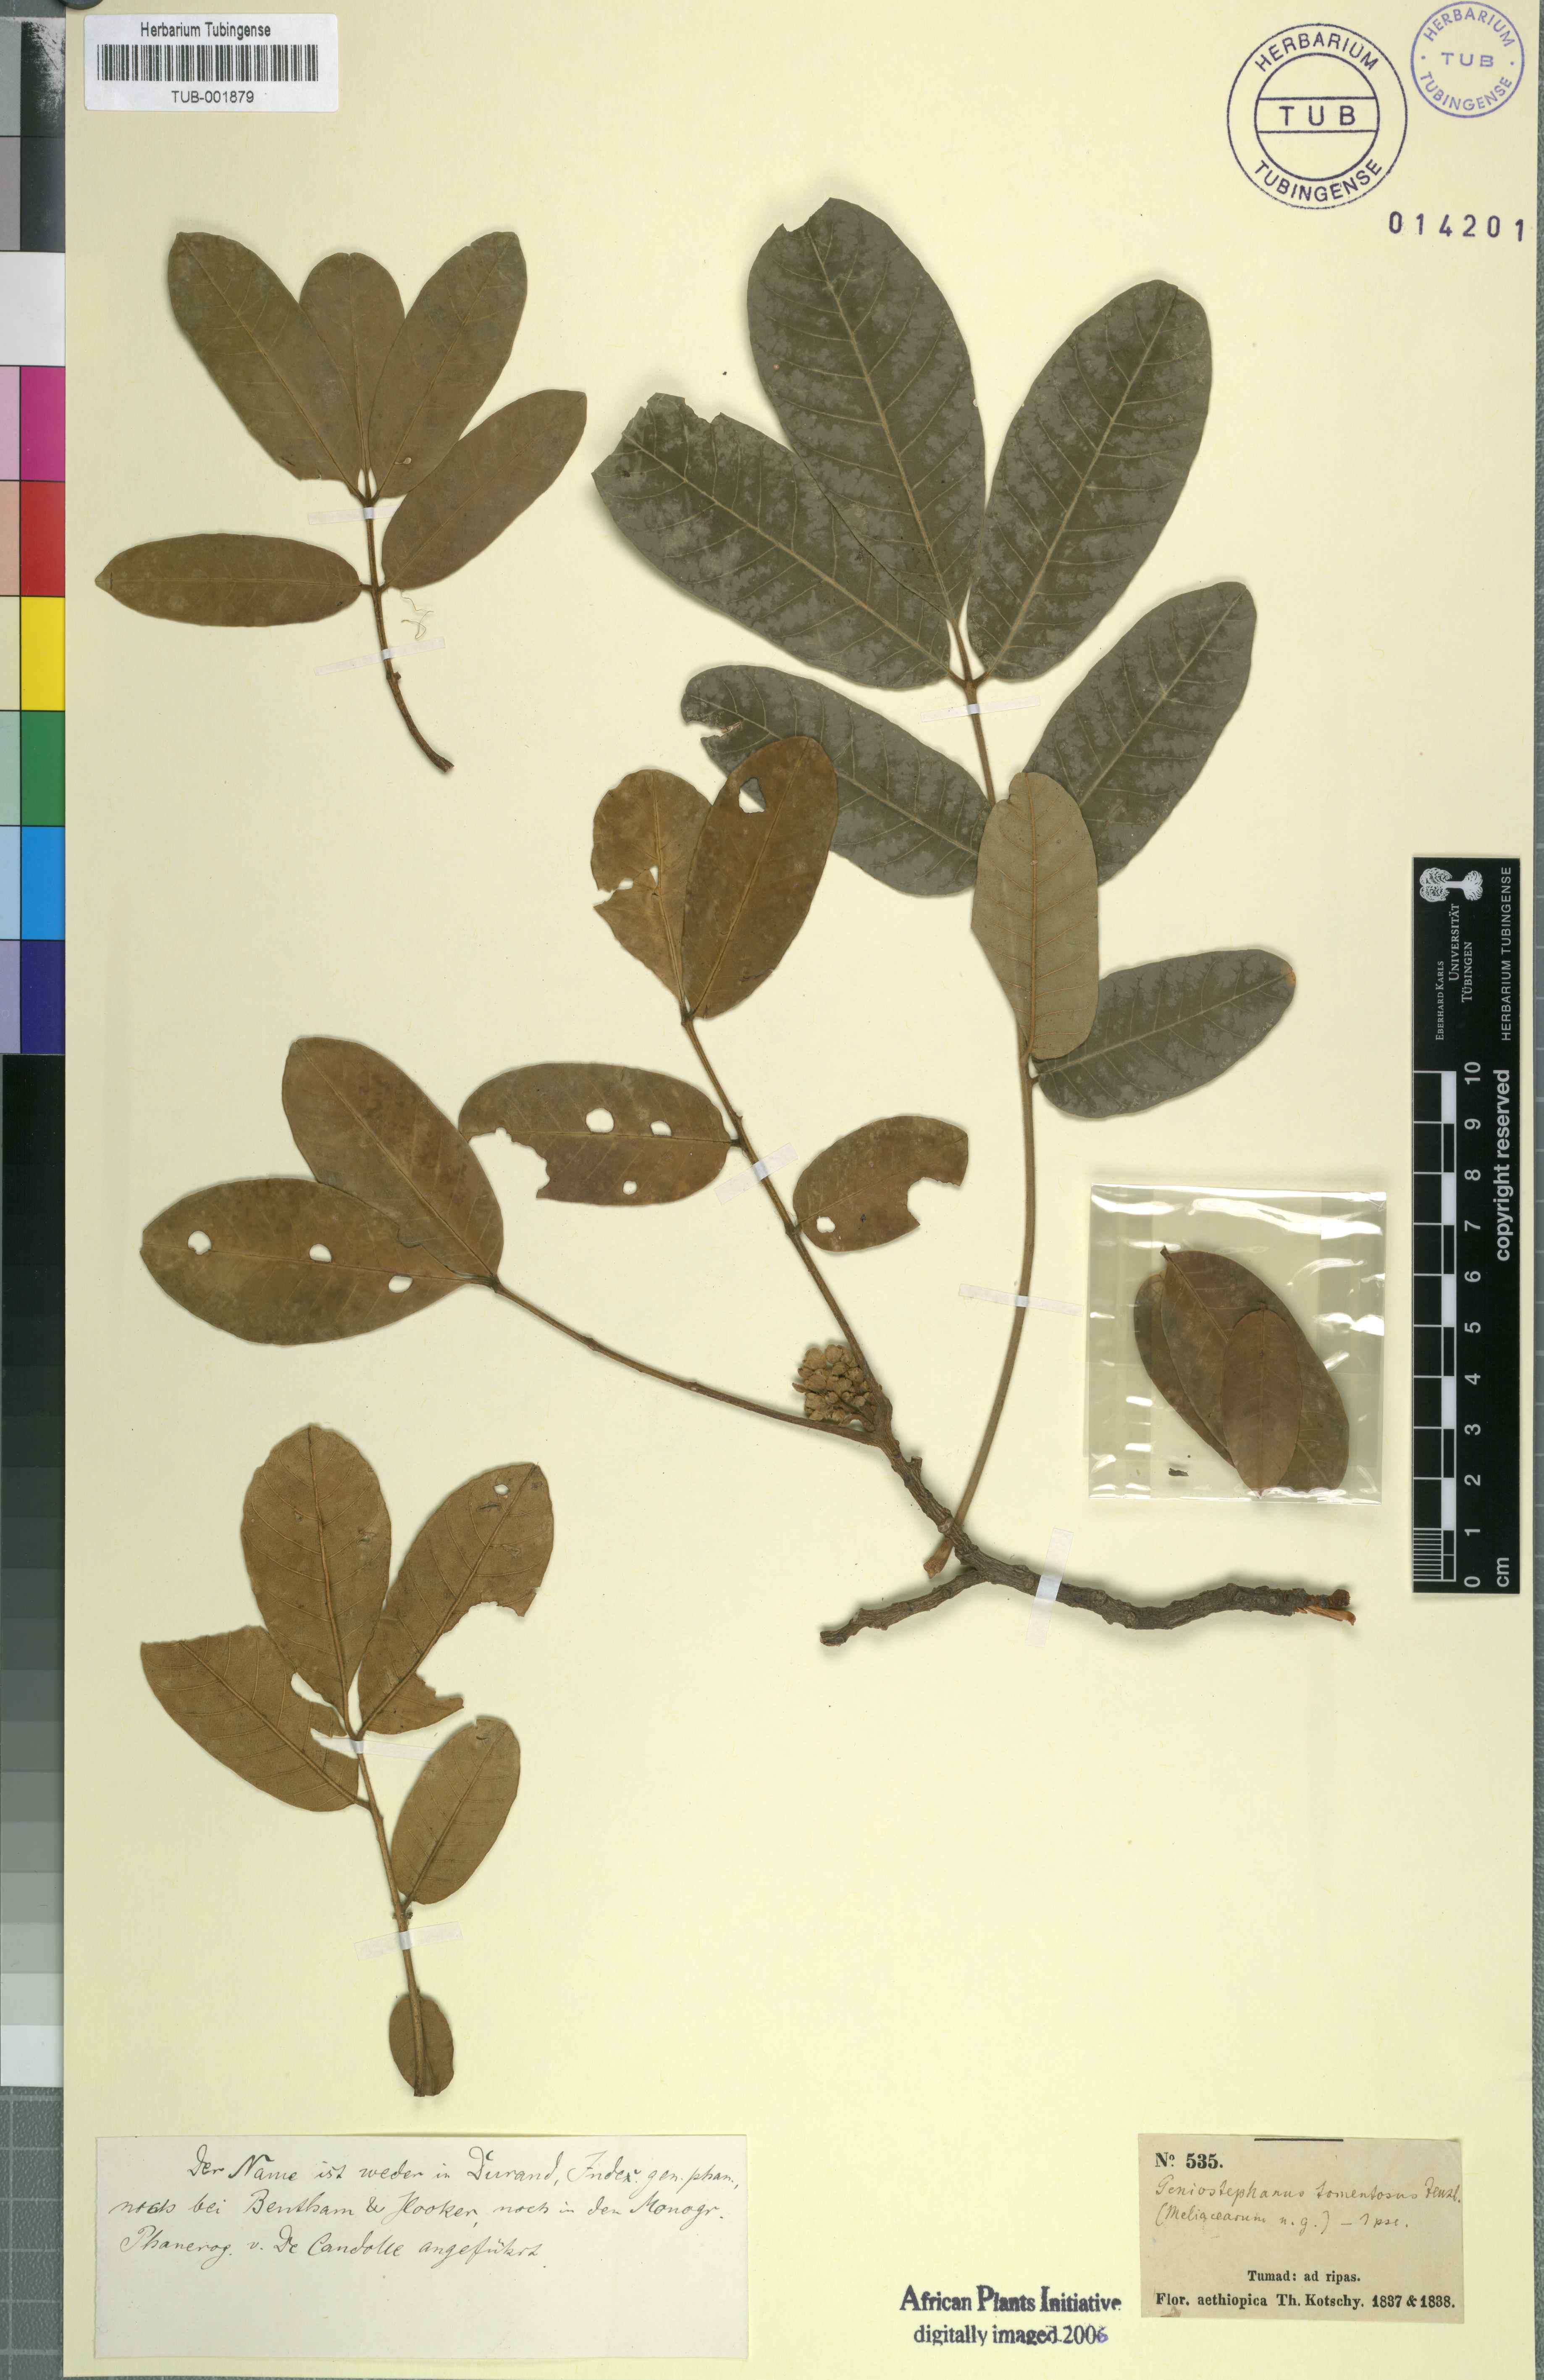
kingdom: Plantae
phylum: Tracheophyta
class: Magnoliopsida
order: Sapindales
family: Meliaceae
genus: Trichilia
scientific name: Trichilia emetica
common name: Christmas-bells
